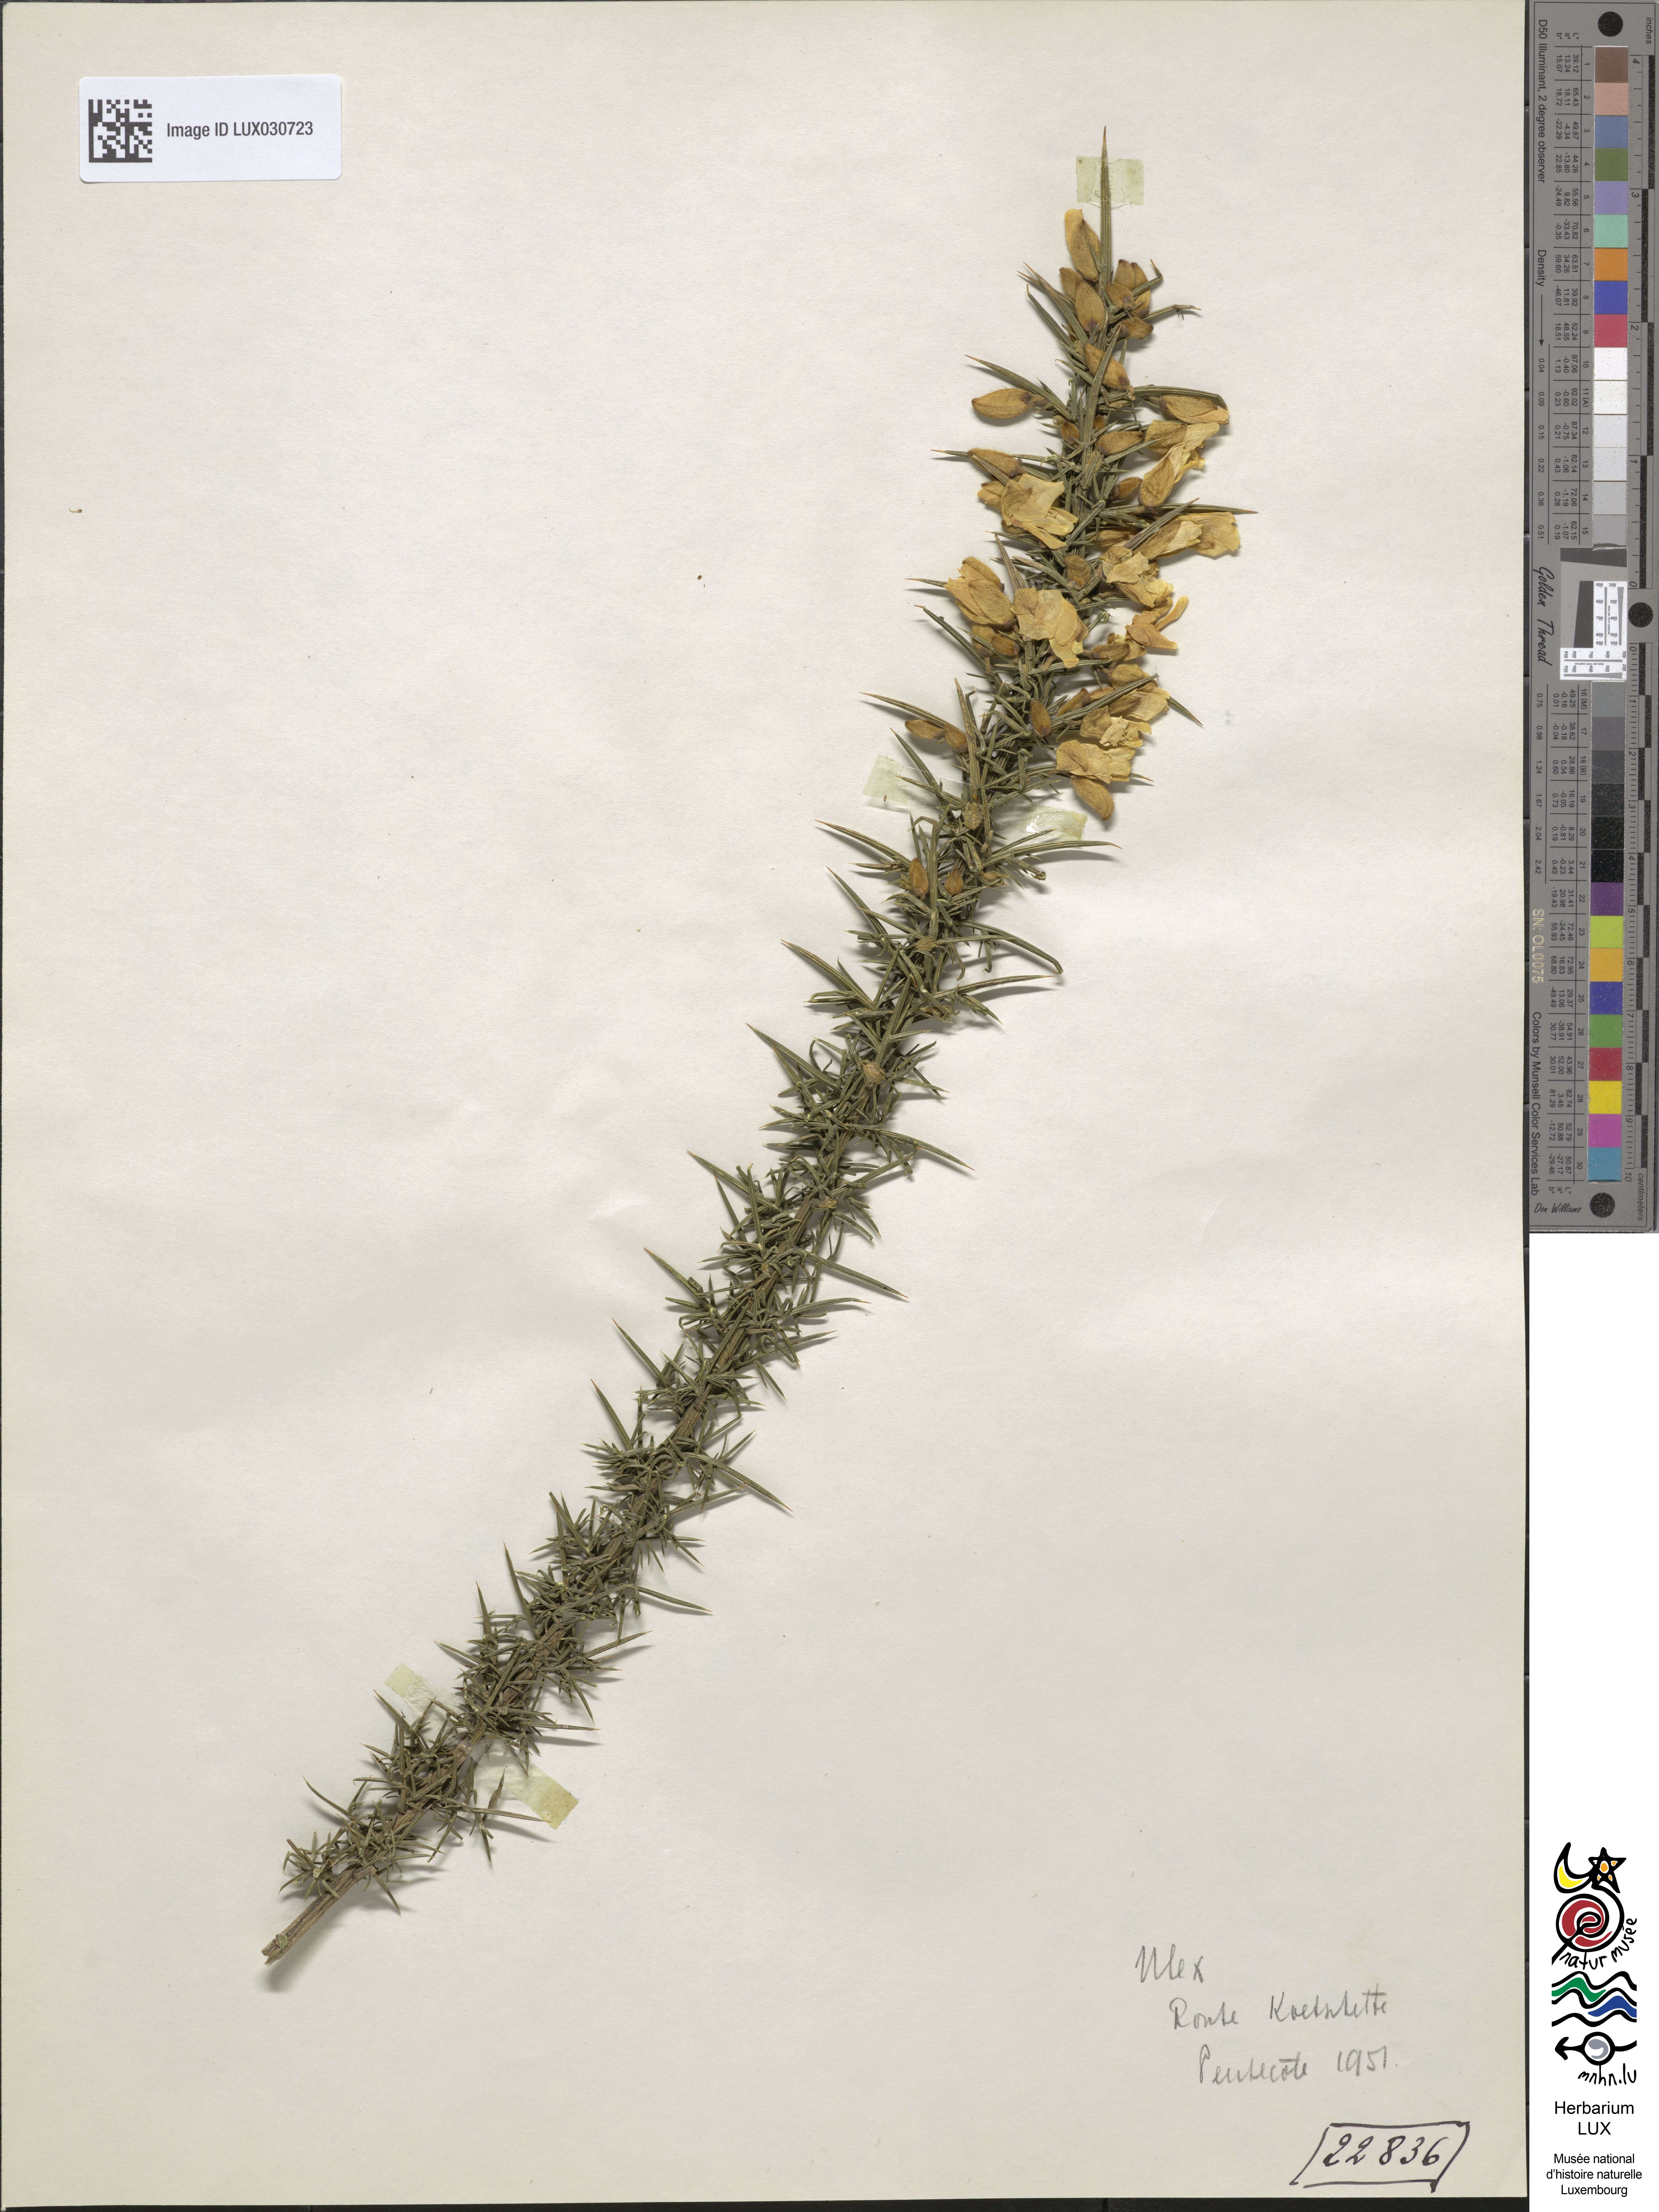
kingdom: Plantae
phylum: Tracheophyta
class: Magnoliopsida
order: Fabales
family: Fabaceae
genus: Ulex
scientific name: Ulex europaeus
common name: Common gorse
